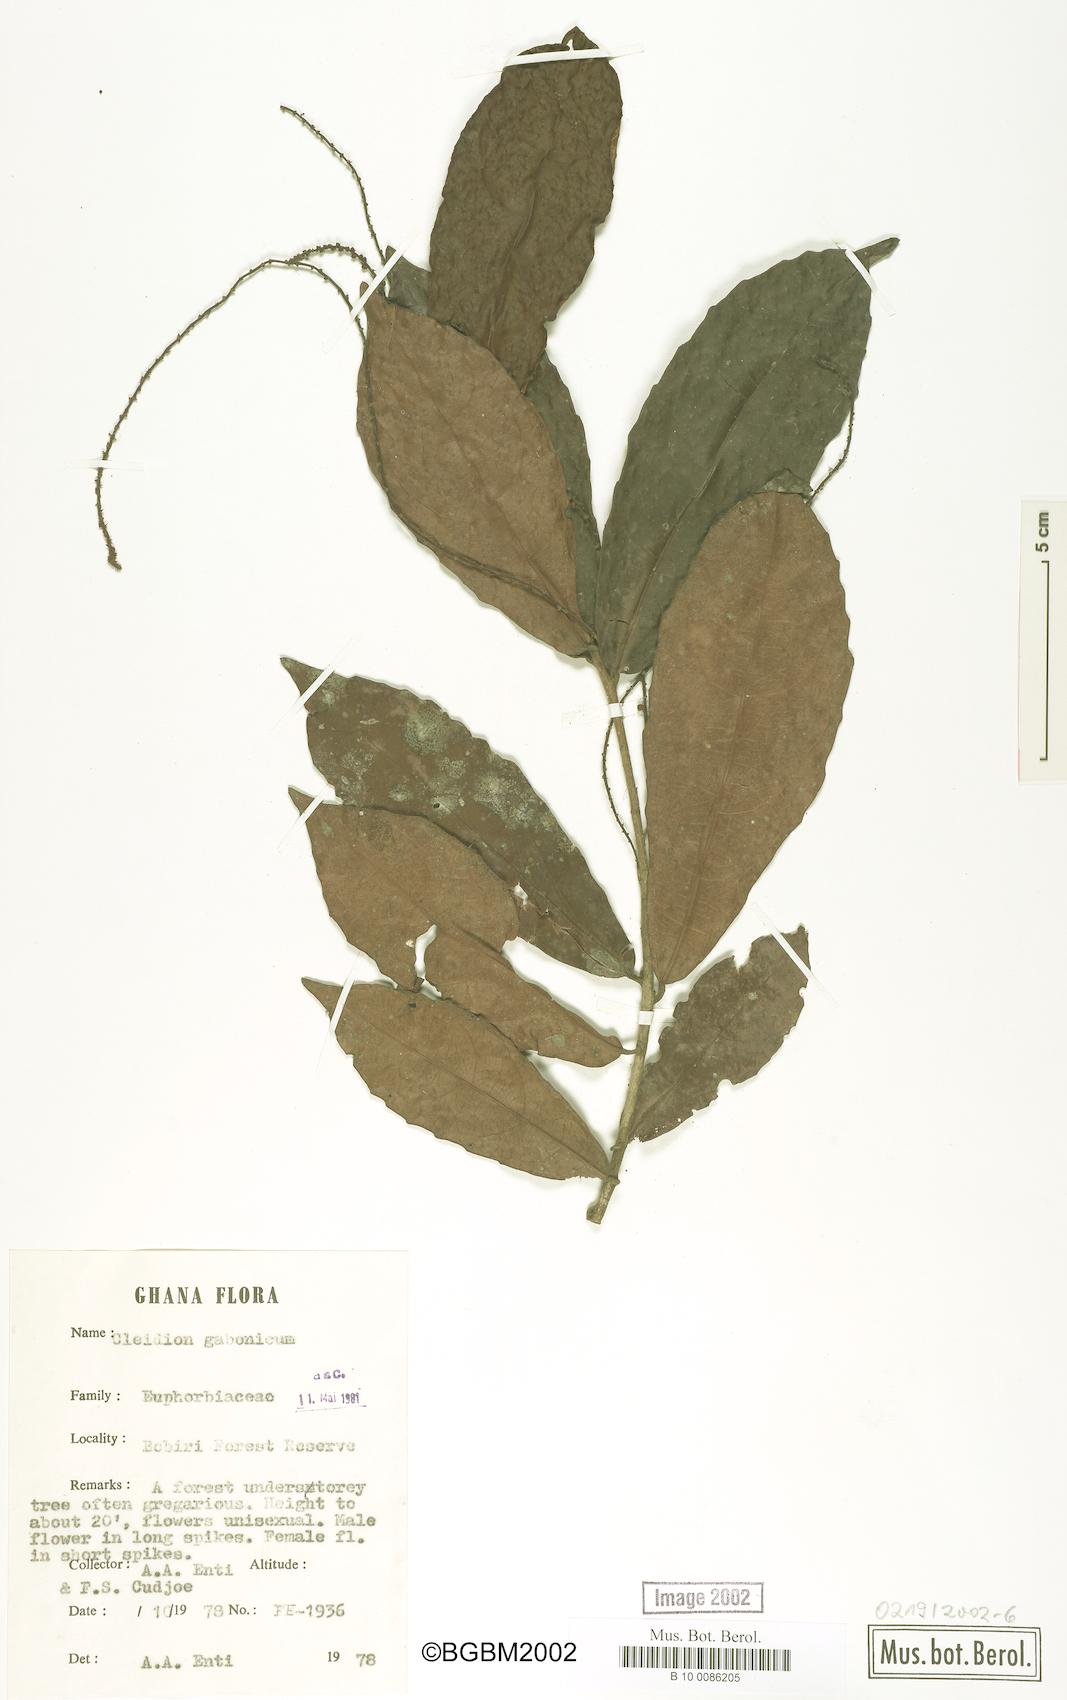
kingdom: Plantae
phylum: Tracheophyta
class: Magnoliopsida
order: Malpighiales
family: Euphorbiaceae
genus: Cleidion
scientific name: Cleidion gabonicum
